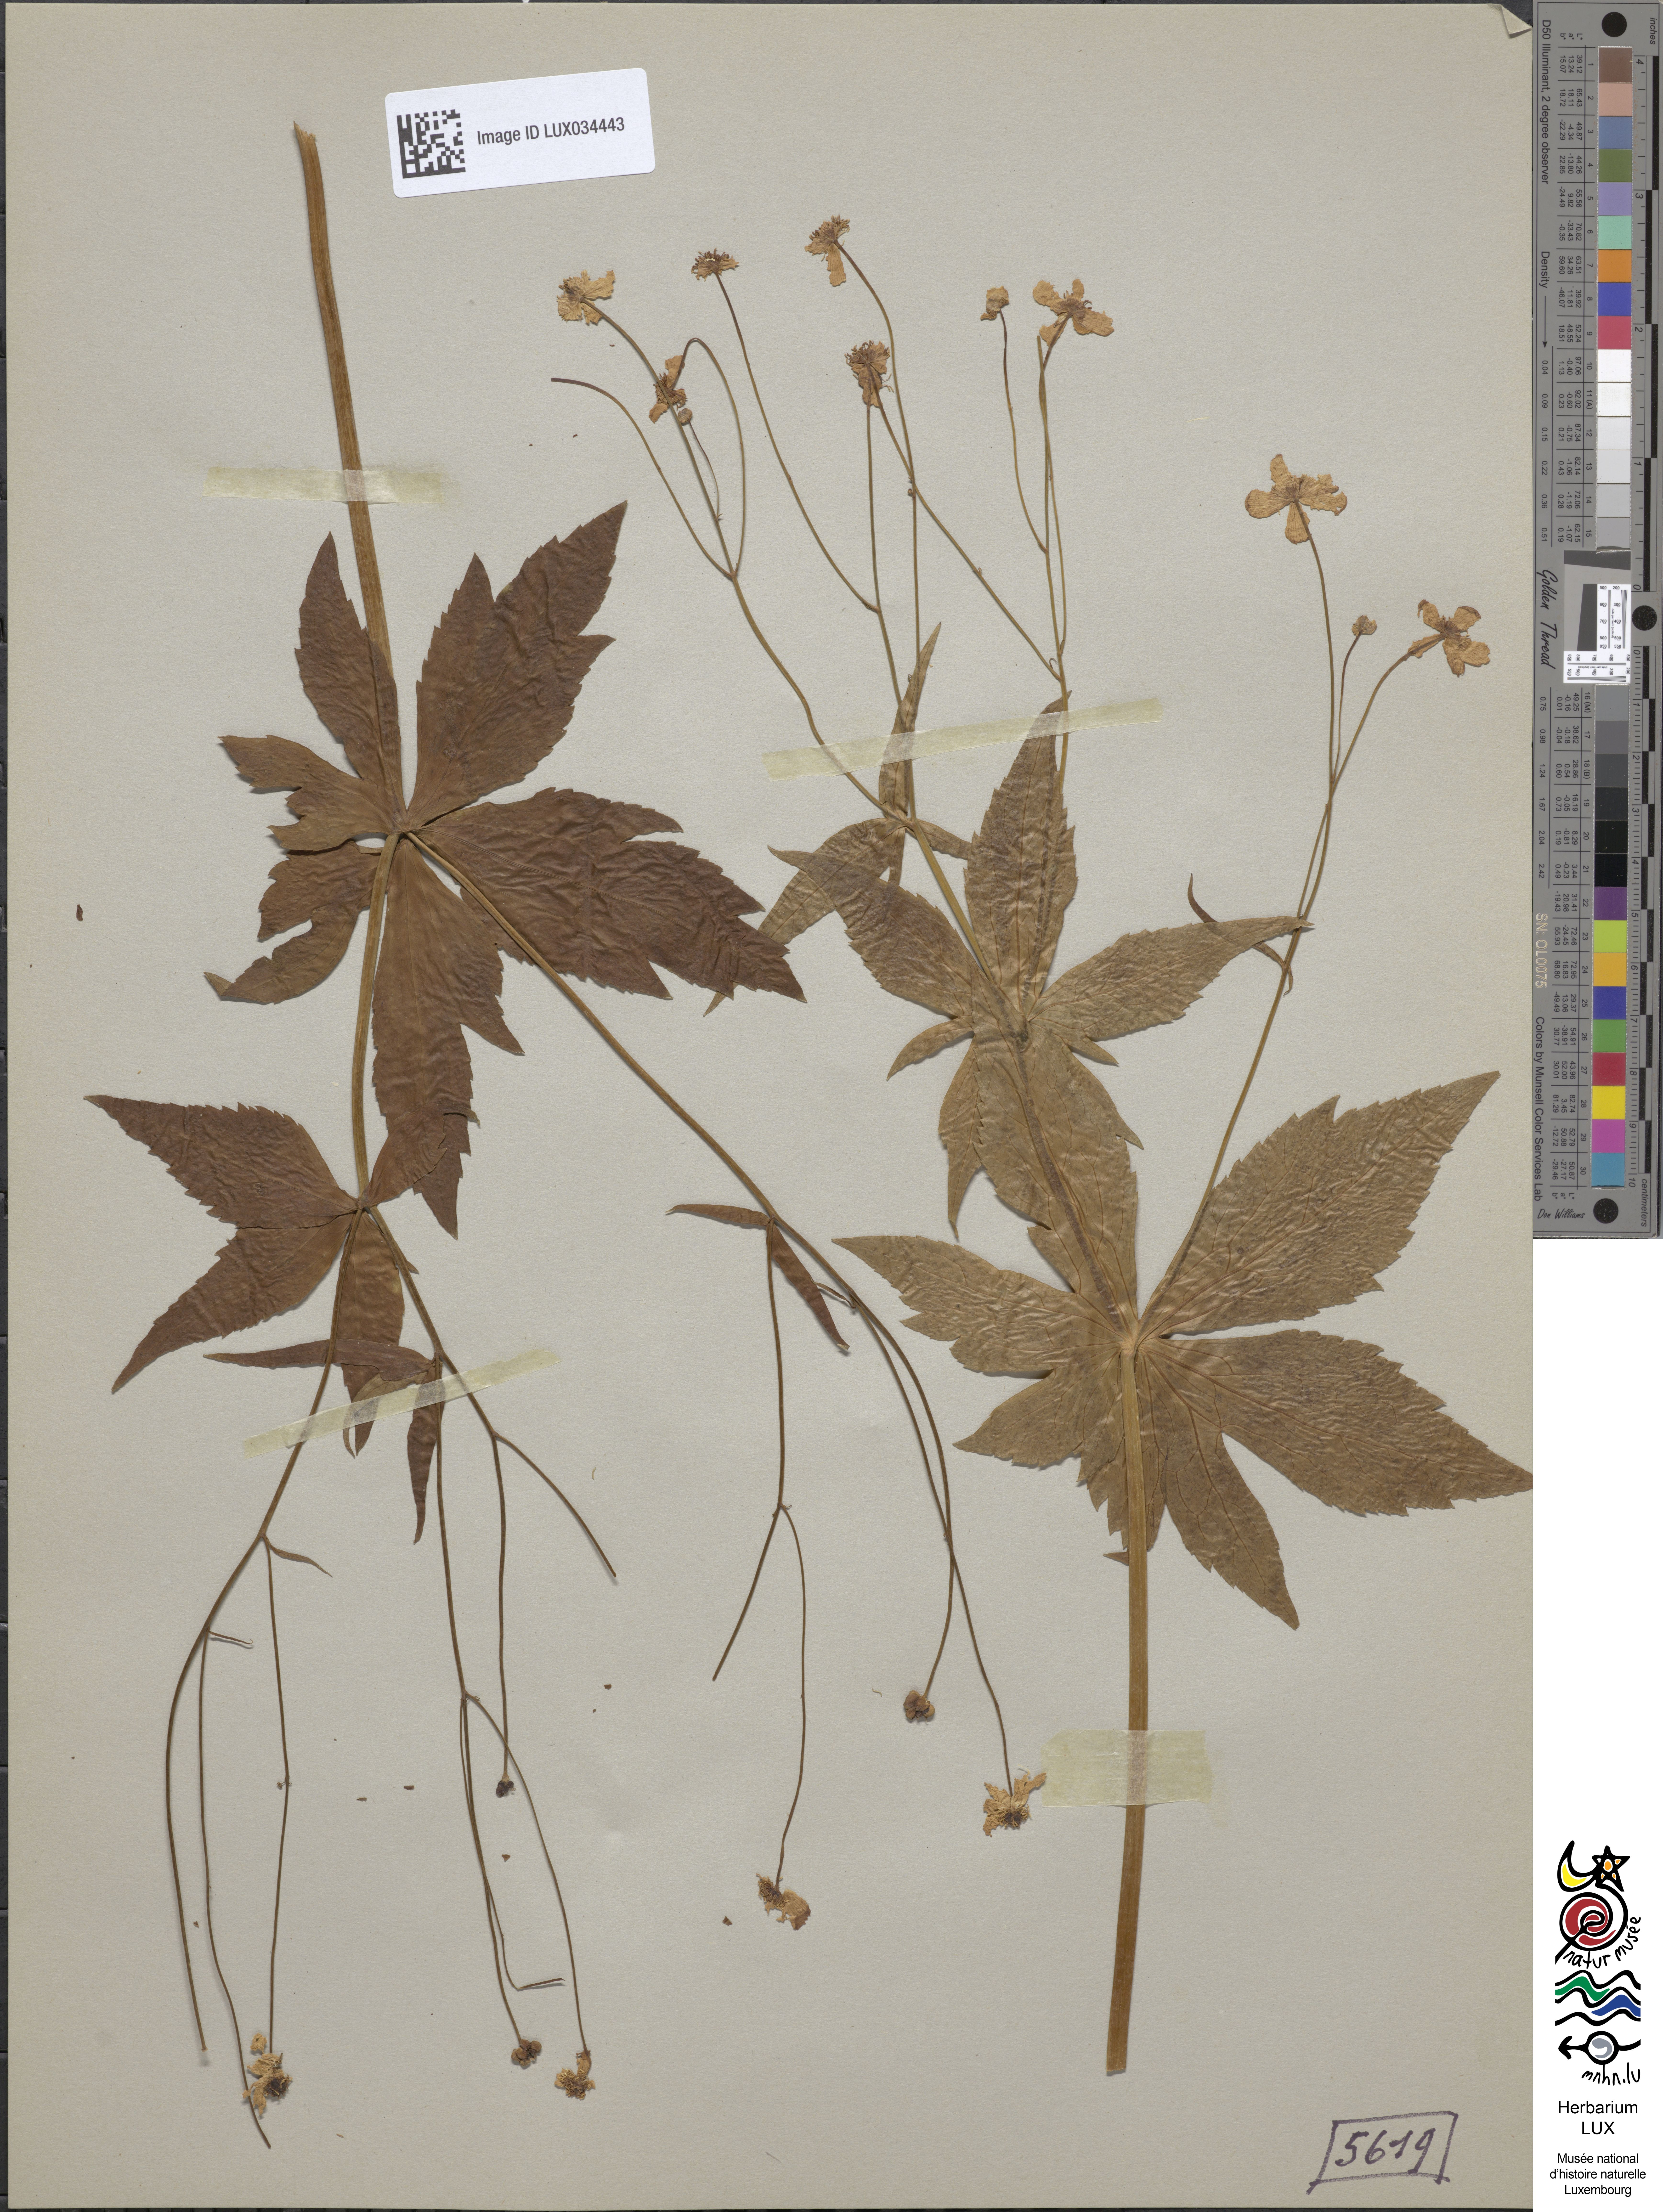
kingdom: Plantae
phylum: Tracheophyta
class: Magnoliopsida
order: Ranunculales
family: Ranunculaceae
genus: Ranunculus
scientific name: Ranunculus aconitifolius
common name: Aconite-leaved buttercup
